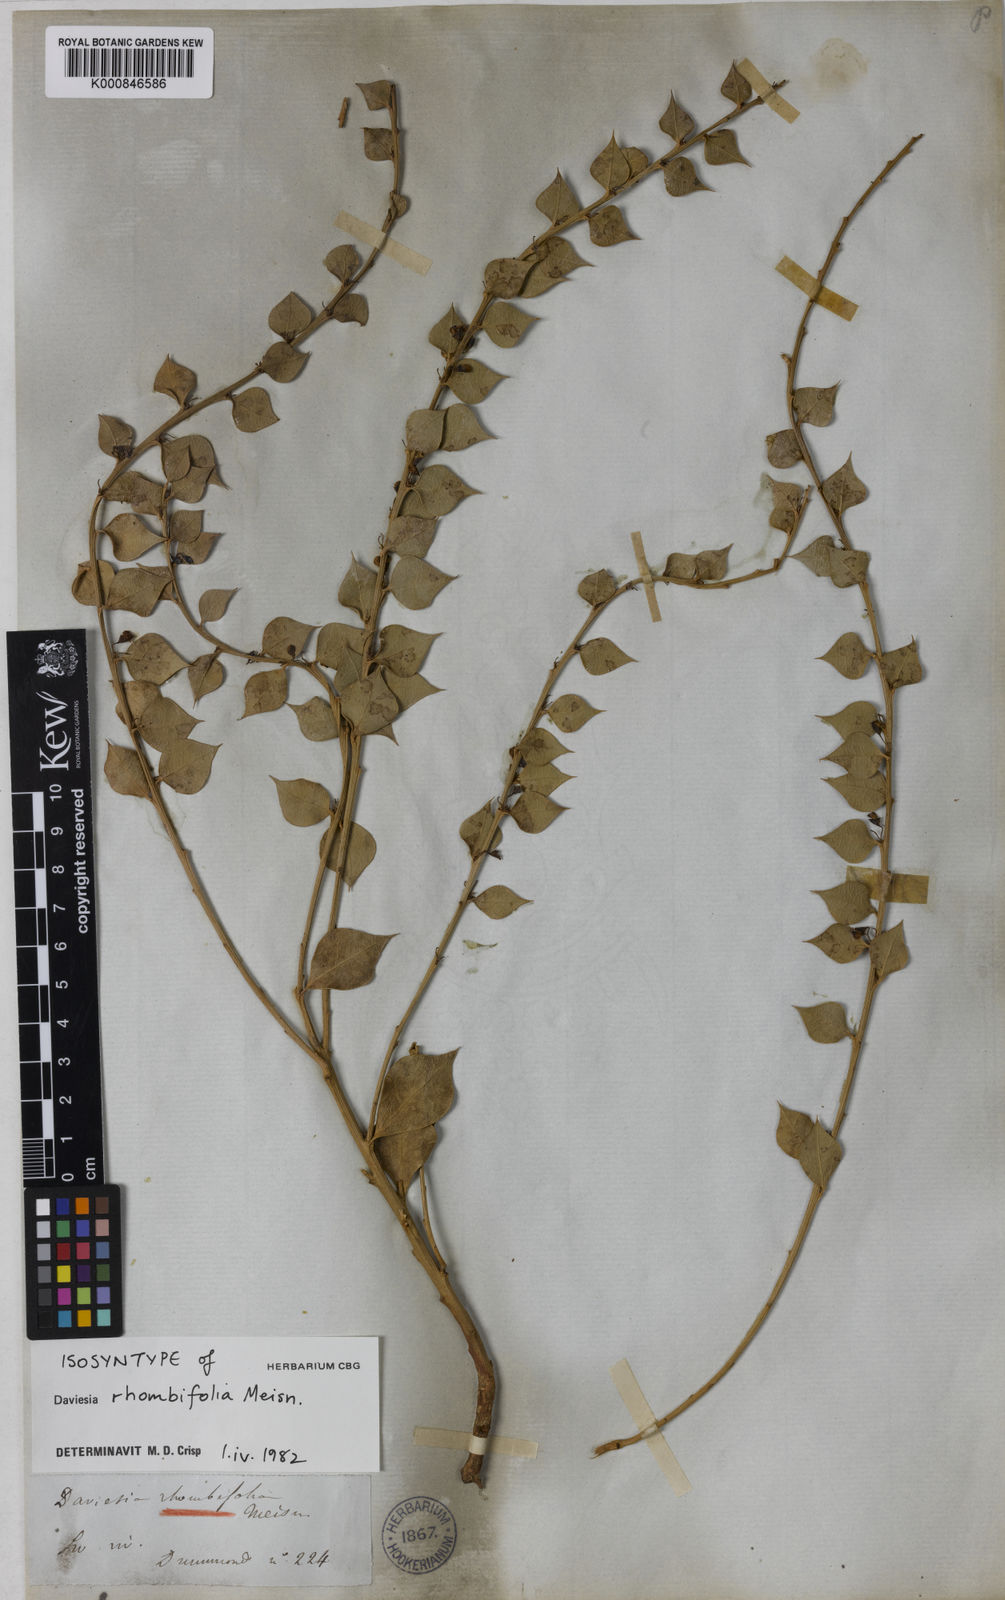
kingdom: Plantae
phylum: Tracheophyta
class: Magnoliopsida
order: Fabales
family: Fabaceae
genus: Daviesia
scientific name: Daviesia rhombifolia
